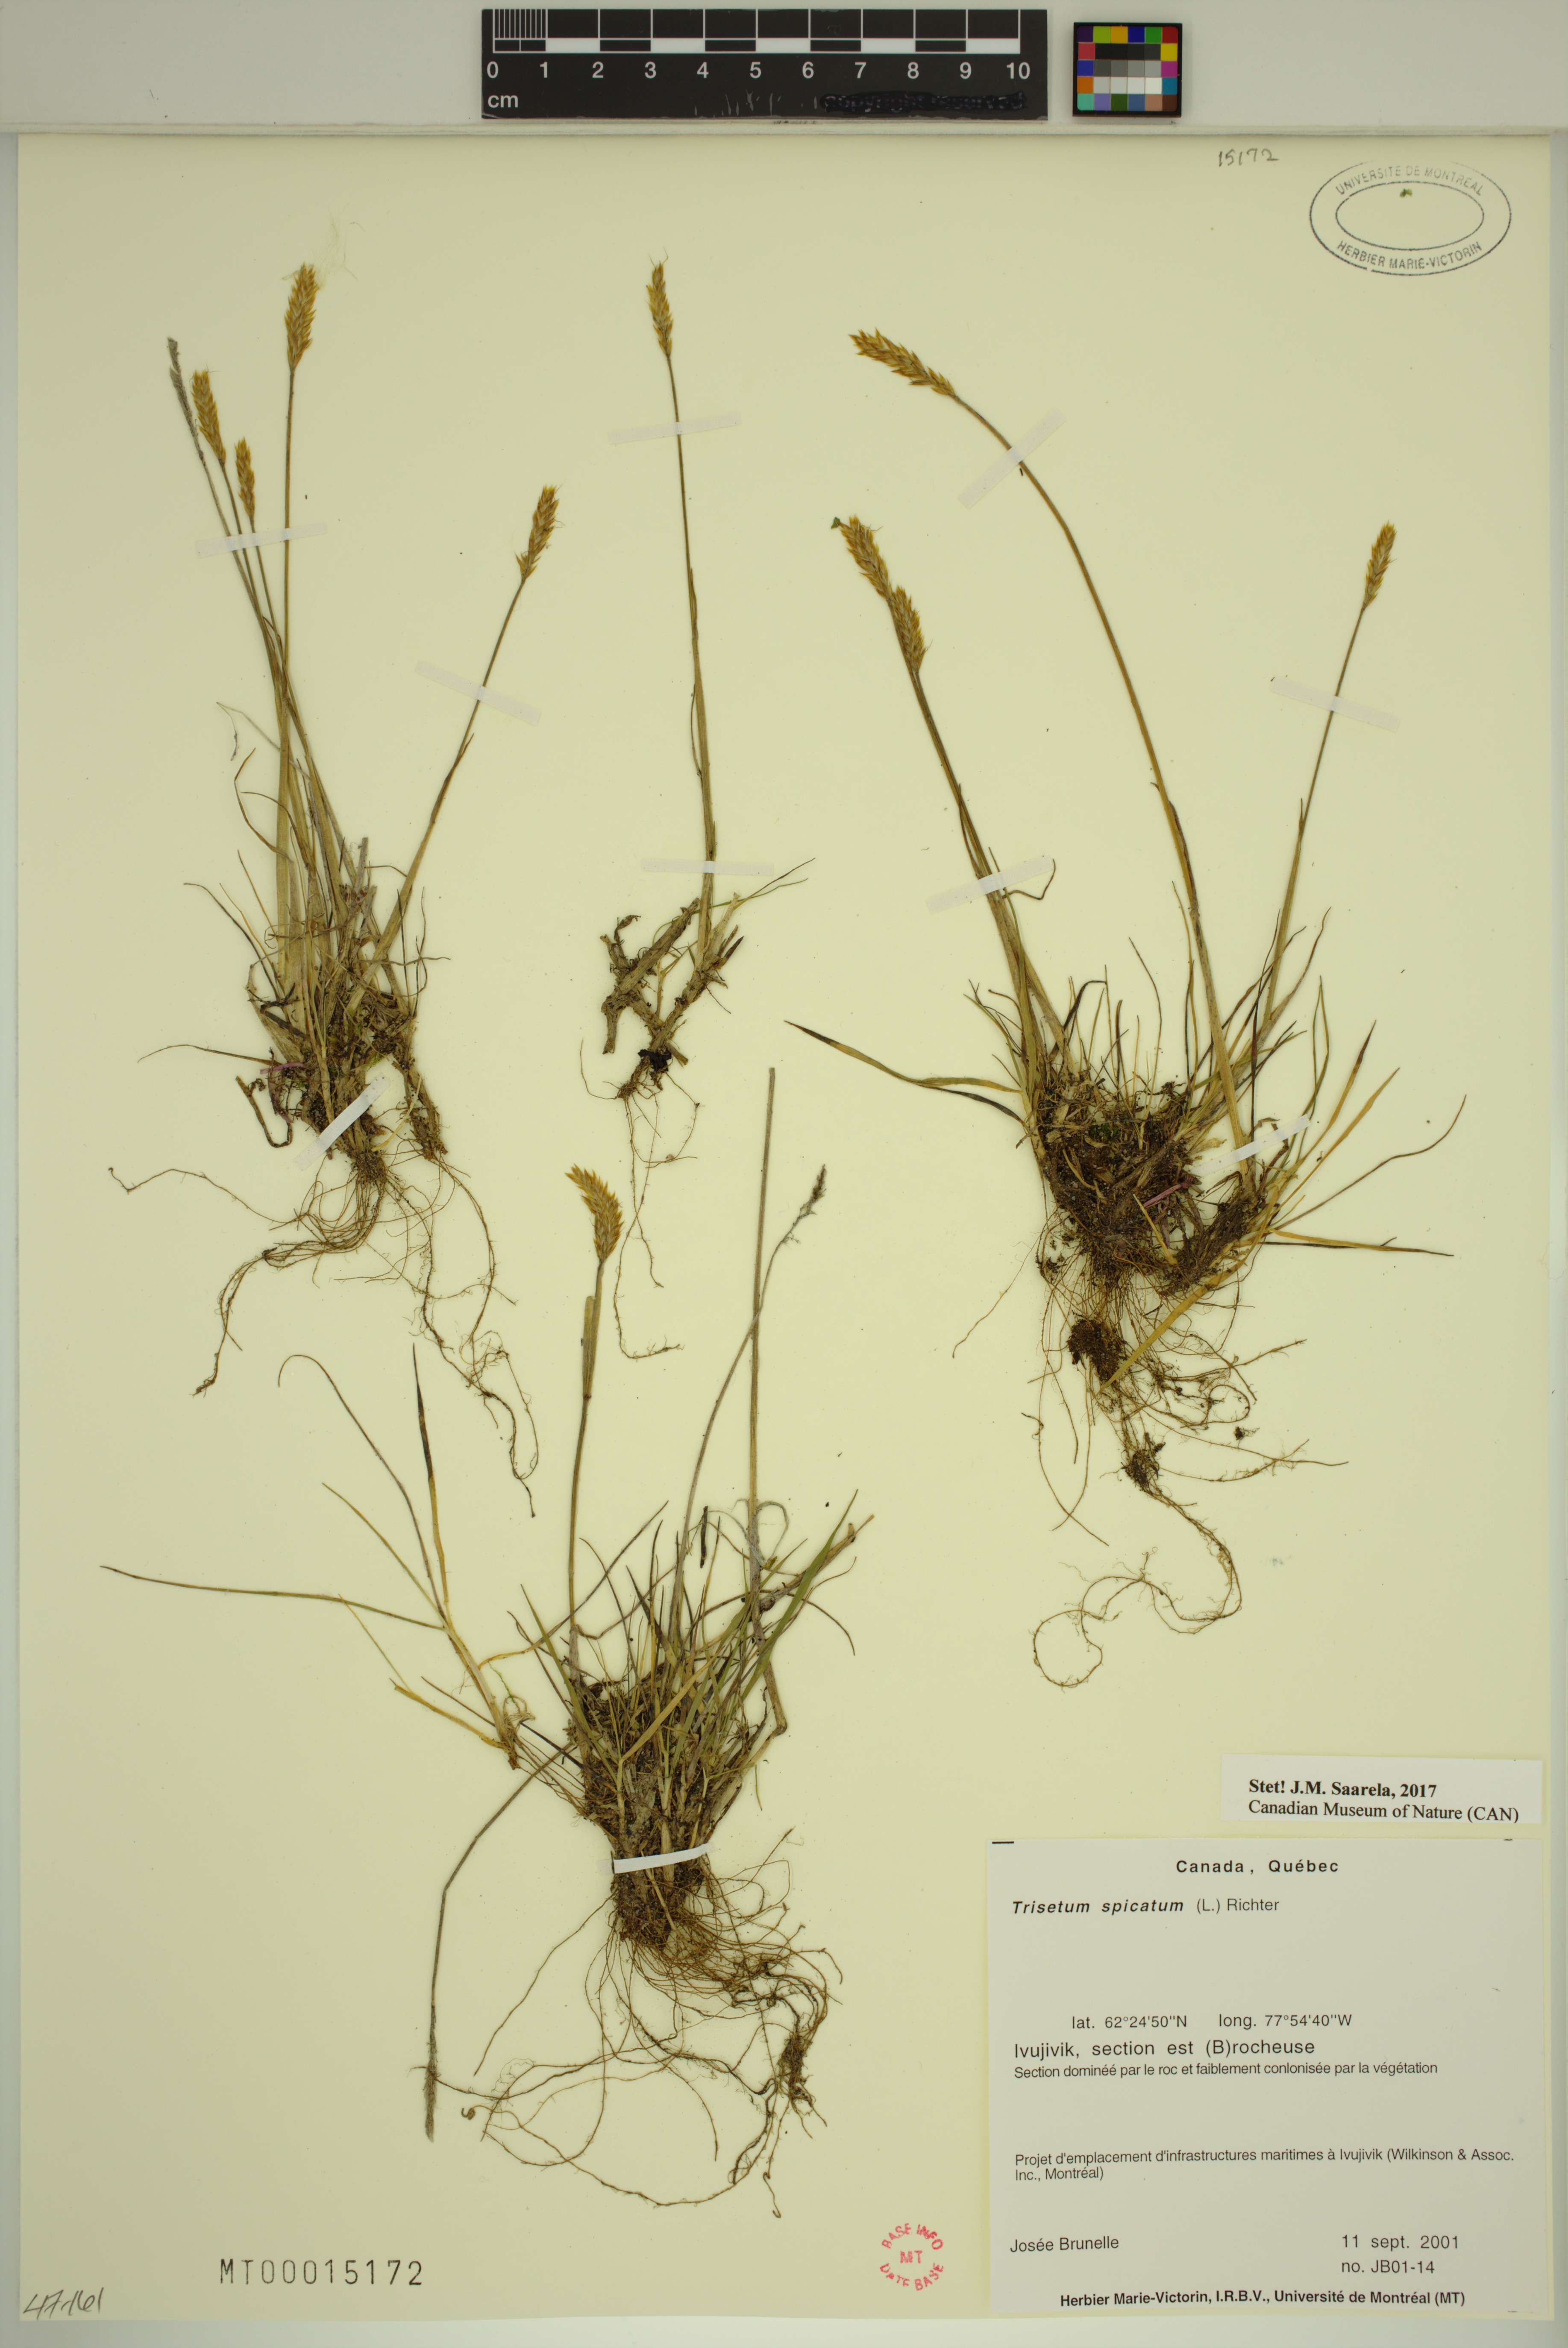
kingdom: Plantae
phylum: Tracheophyta
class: Liliopsida
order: Poales
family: Poaceae
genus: Koeleria
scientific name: Koeleria spicata
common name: Mountain trisetum
